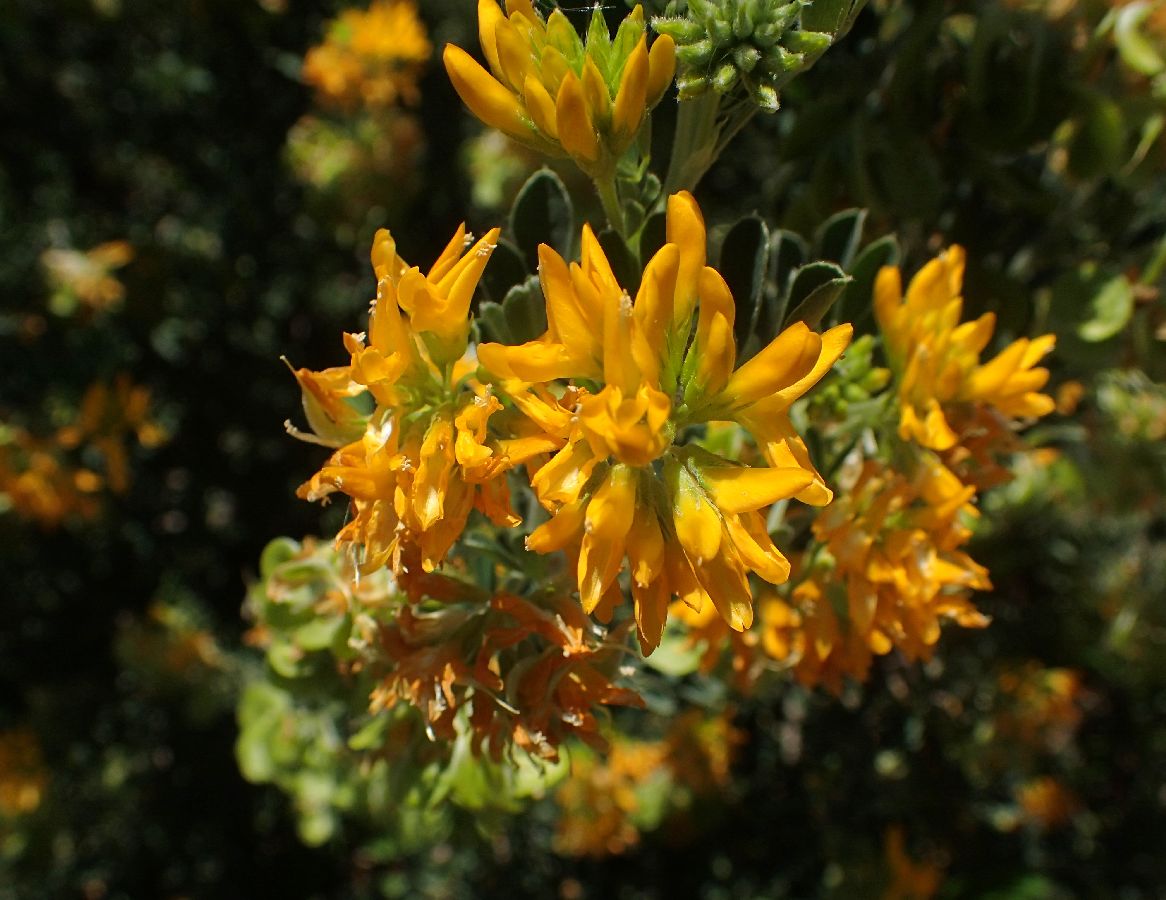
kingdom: Plantae
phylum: Tracheophyta
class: Magnoliopsida
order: Fabales
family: Fabaceae
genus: Medicago
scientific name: Medicago arborea
